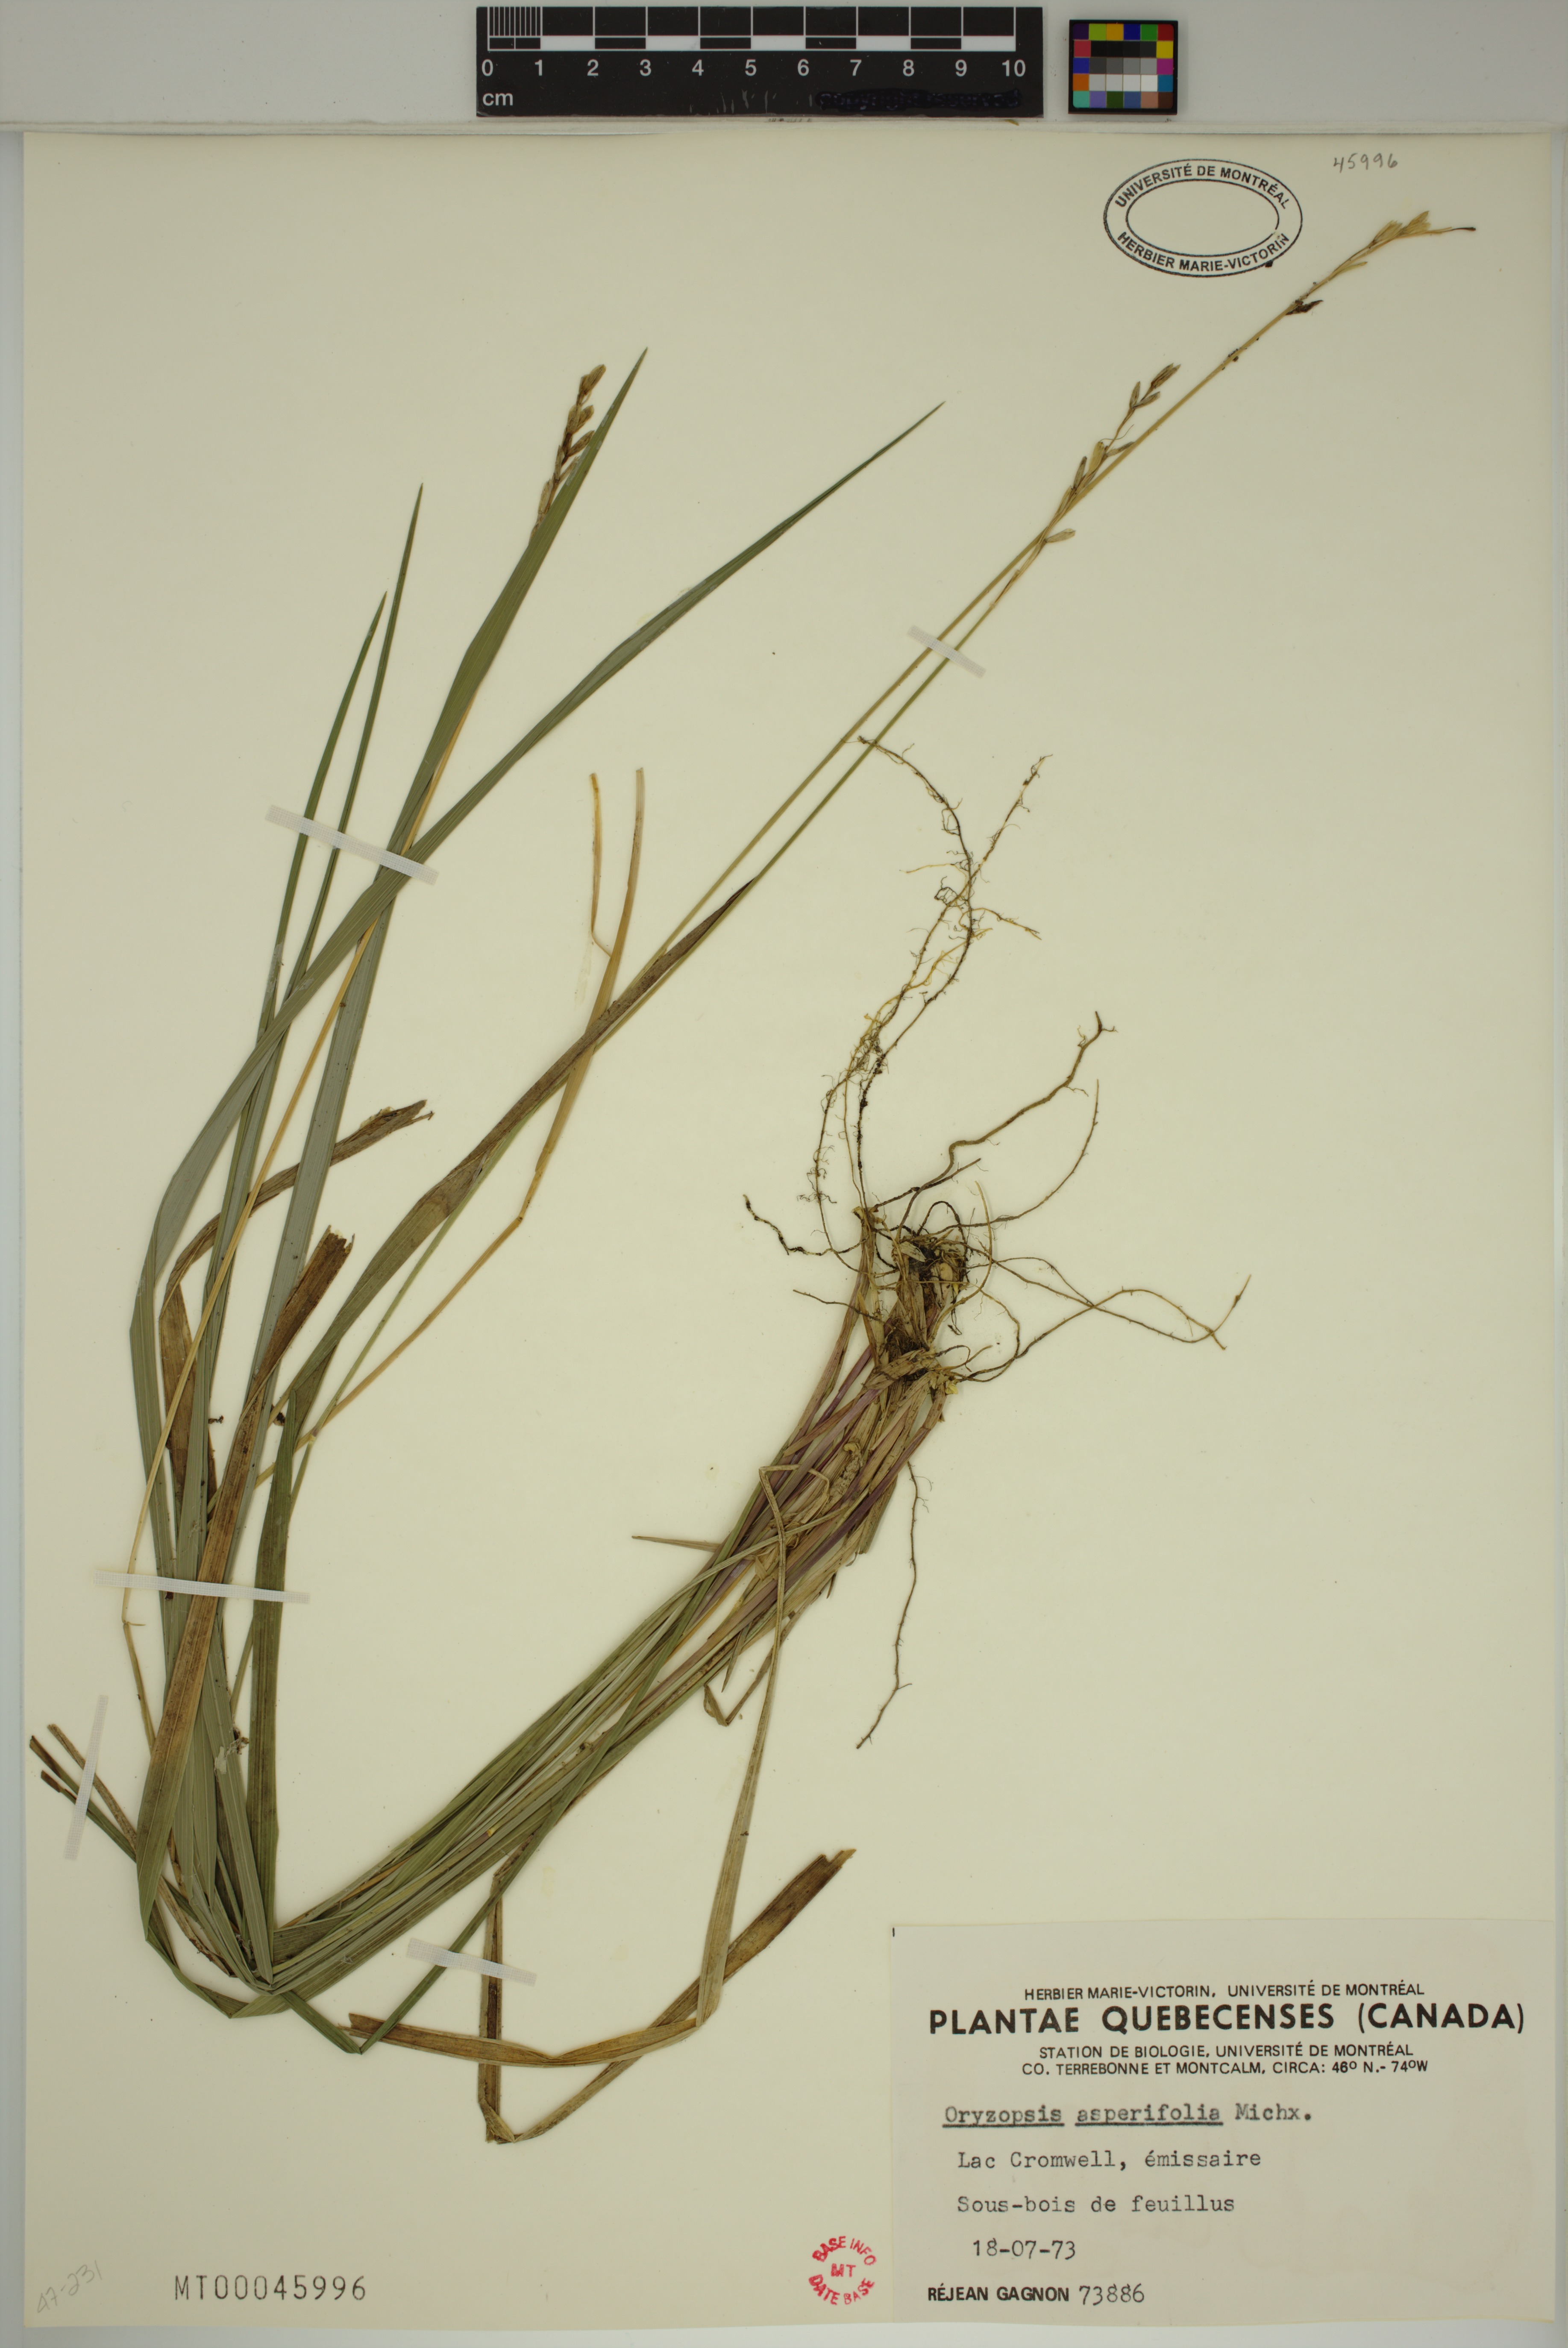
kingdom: Plantae
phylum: Tracheophyta
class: Liliopsida
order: Poales
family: Poaceae
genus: Oryzopsis
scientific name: Oryzopsis asperifolia
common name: Rough-leaved mountain rice
